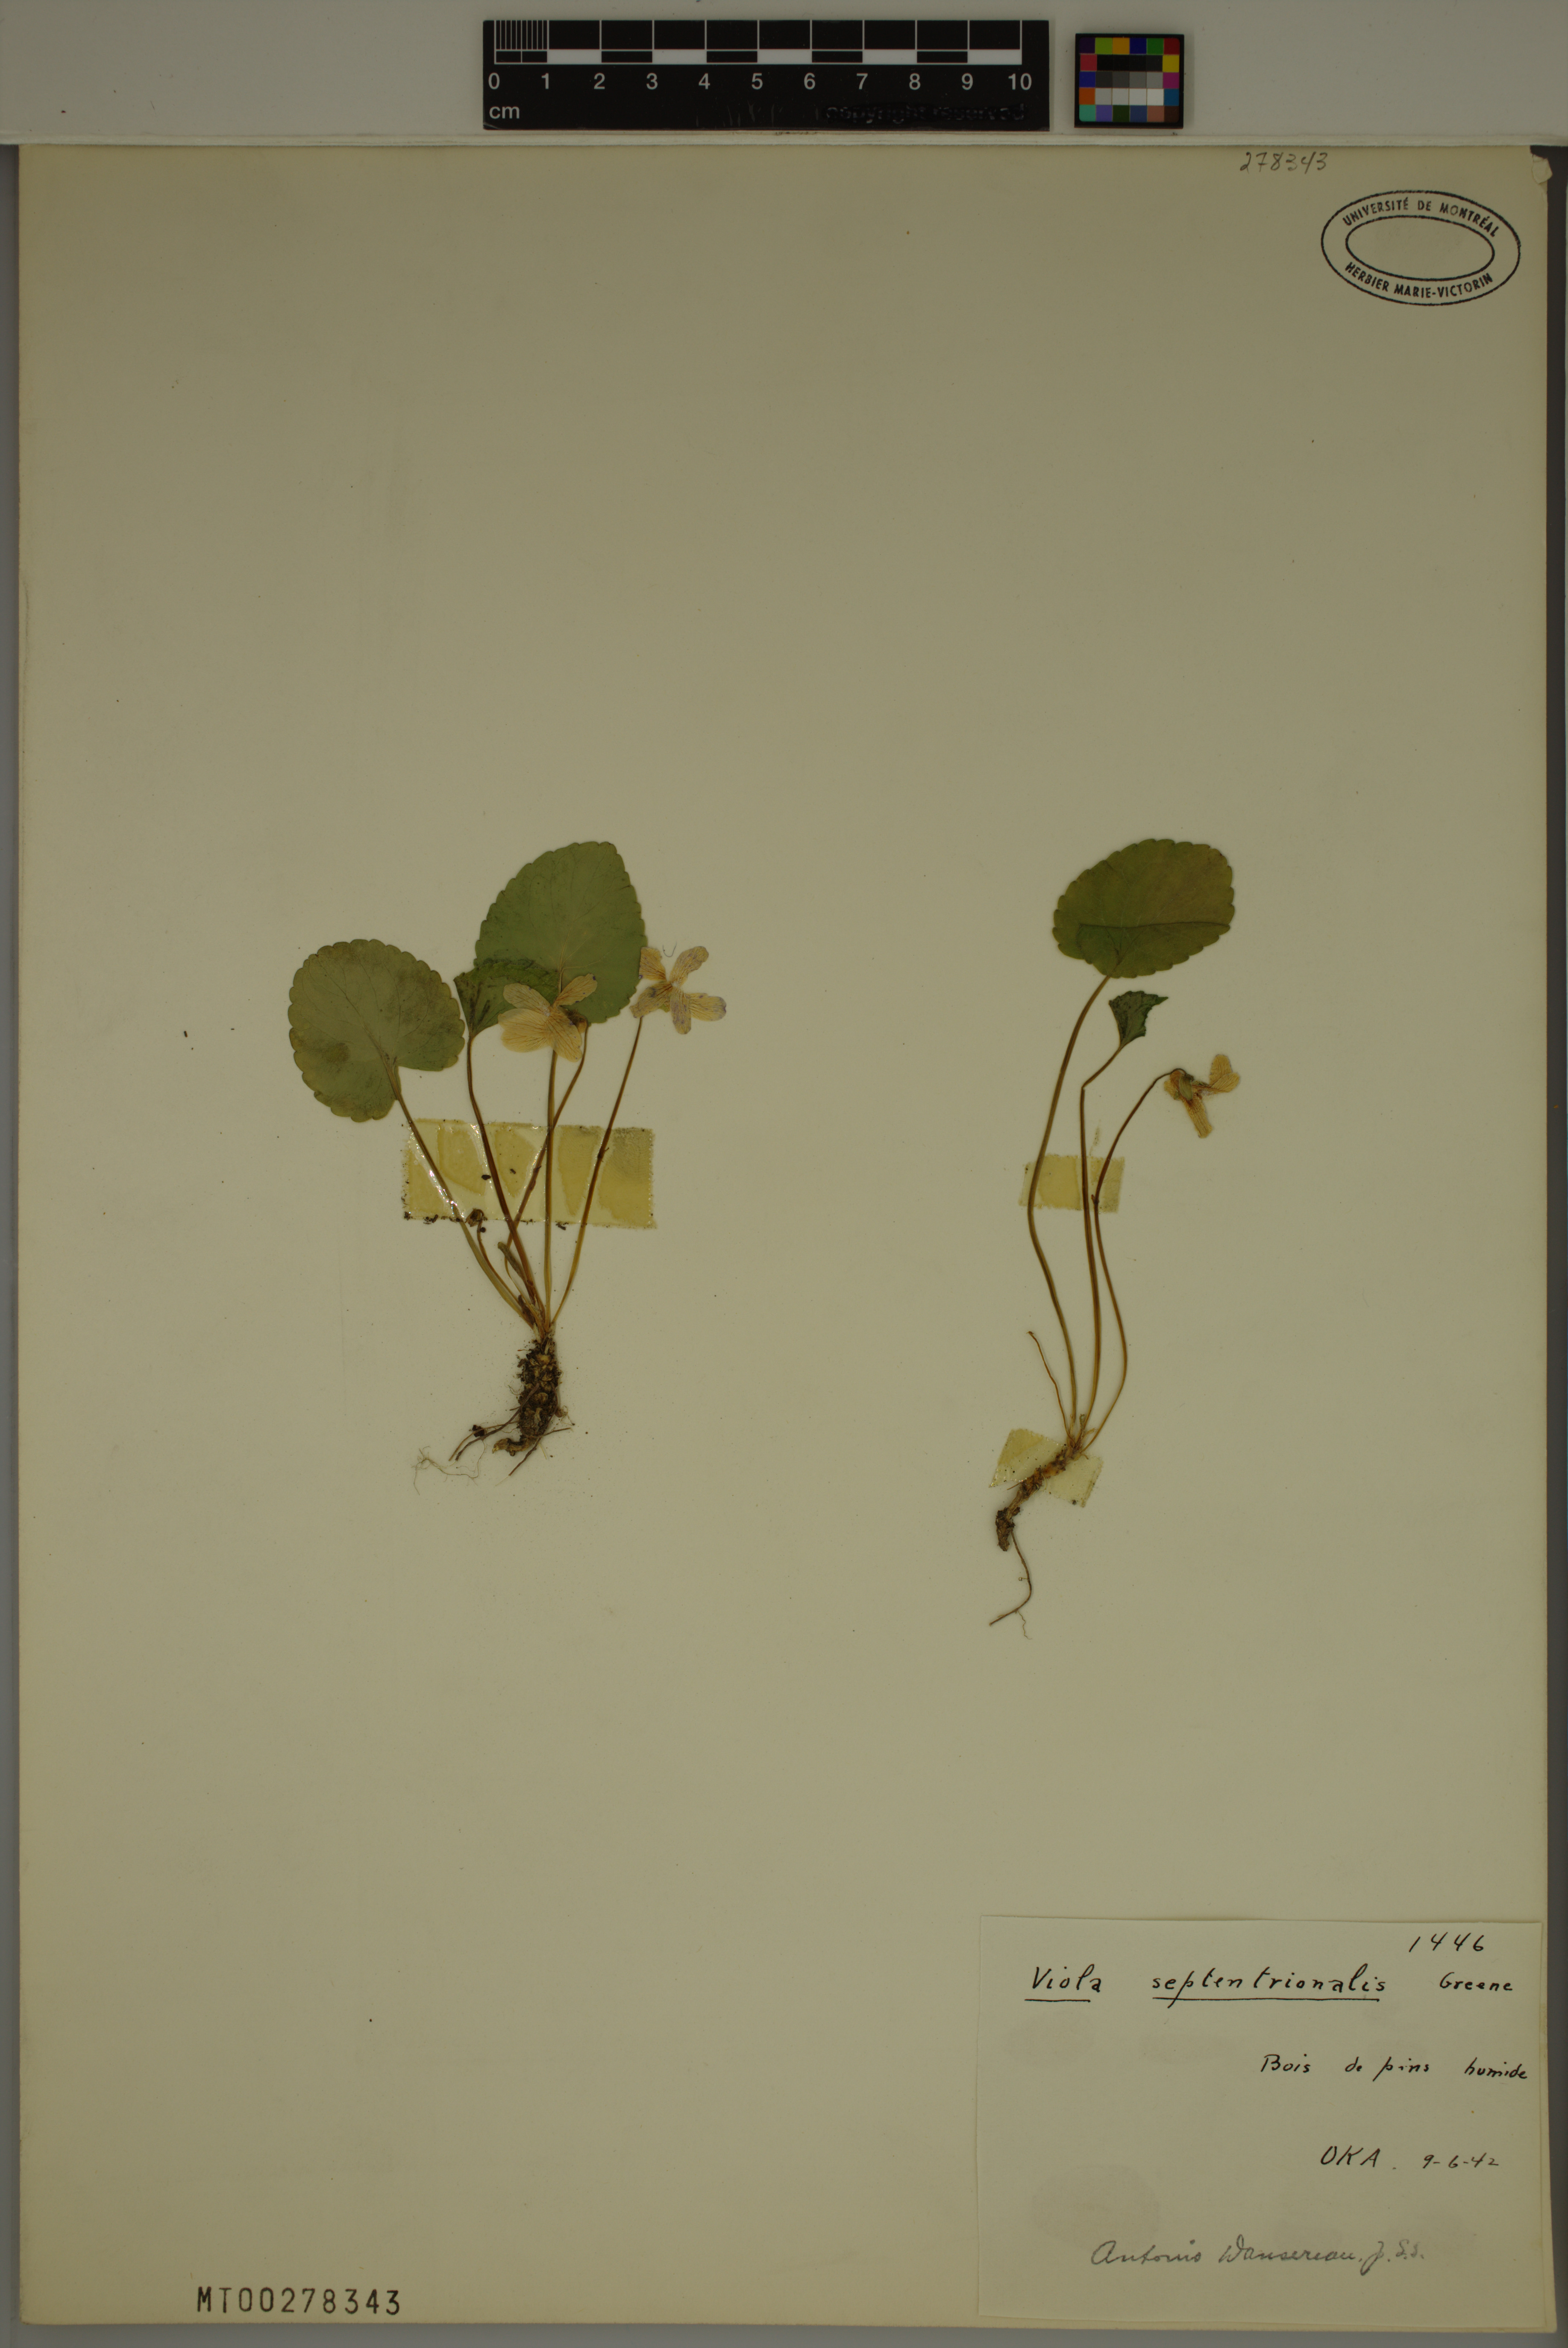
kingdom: Plantae
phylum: Tracheophyta
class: Magnoliopsida
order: Malpighiales
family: Violaceae
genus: Viola
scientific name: Viola septentrionalis
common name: Northern woodland violet
